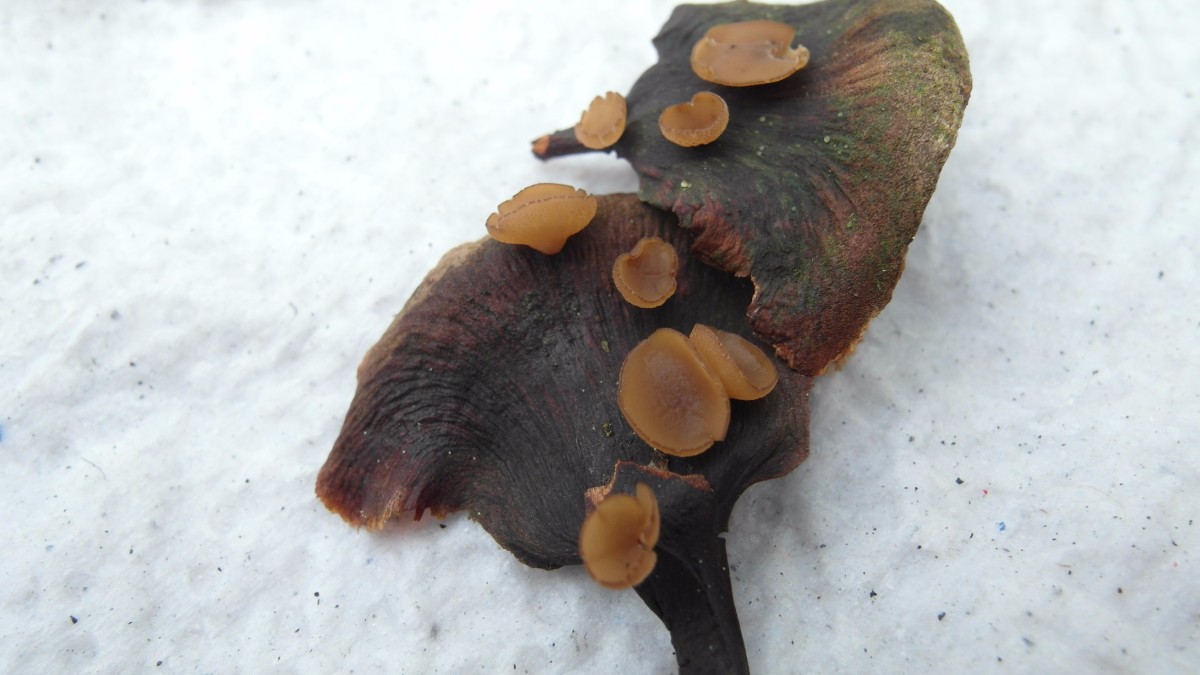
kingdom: Fungi
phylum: Ascomycota
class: Leotiomycetes
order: Helotiales
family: Sclerotiniaceae
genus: Ciboria
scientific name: Ciboria rufofusca
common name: kogleskæl-knoldskive
